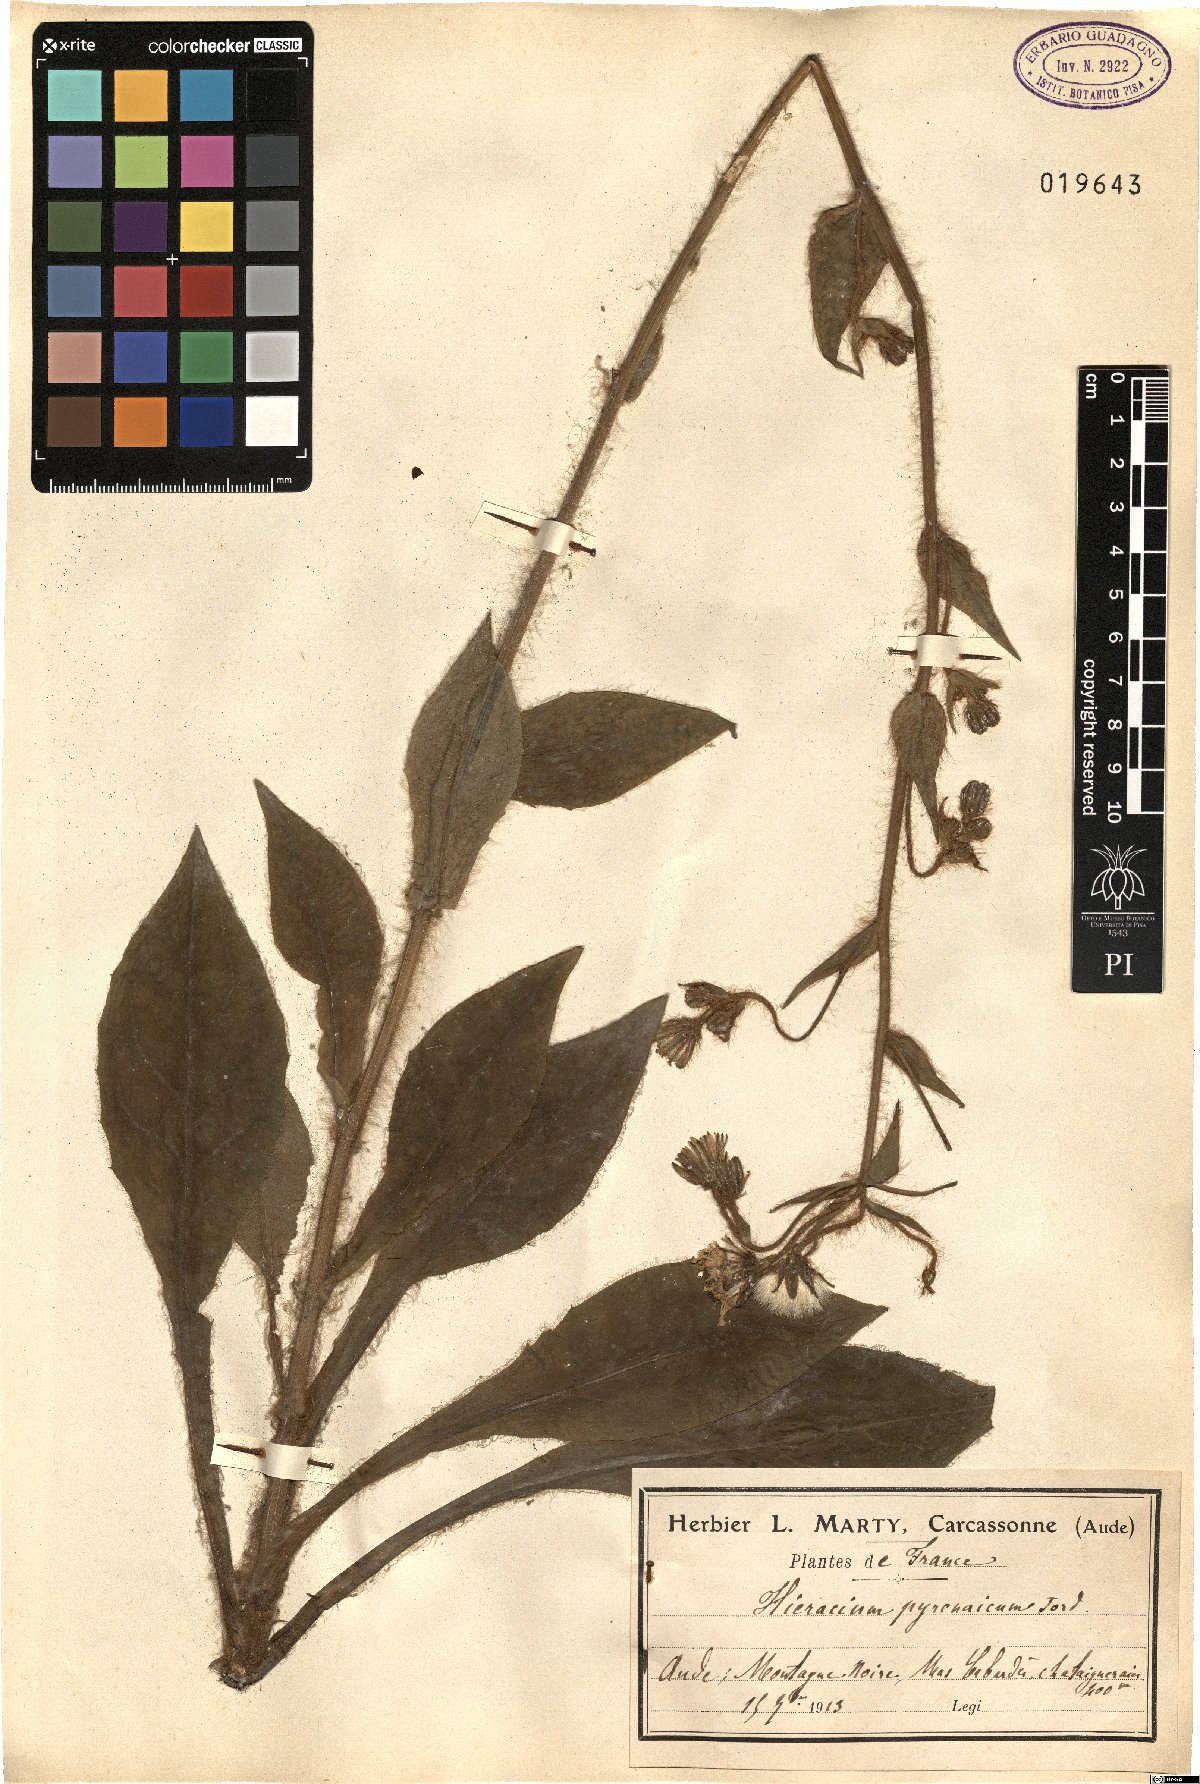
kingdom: Plantae
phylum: Tracheophyta
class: Magnoliopsida
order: Asterales
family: Asteraceae
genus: Crepis
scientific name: Crepis pyrenaica
